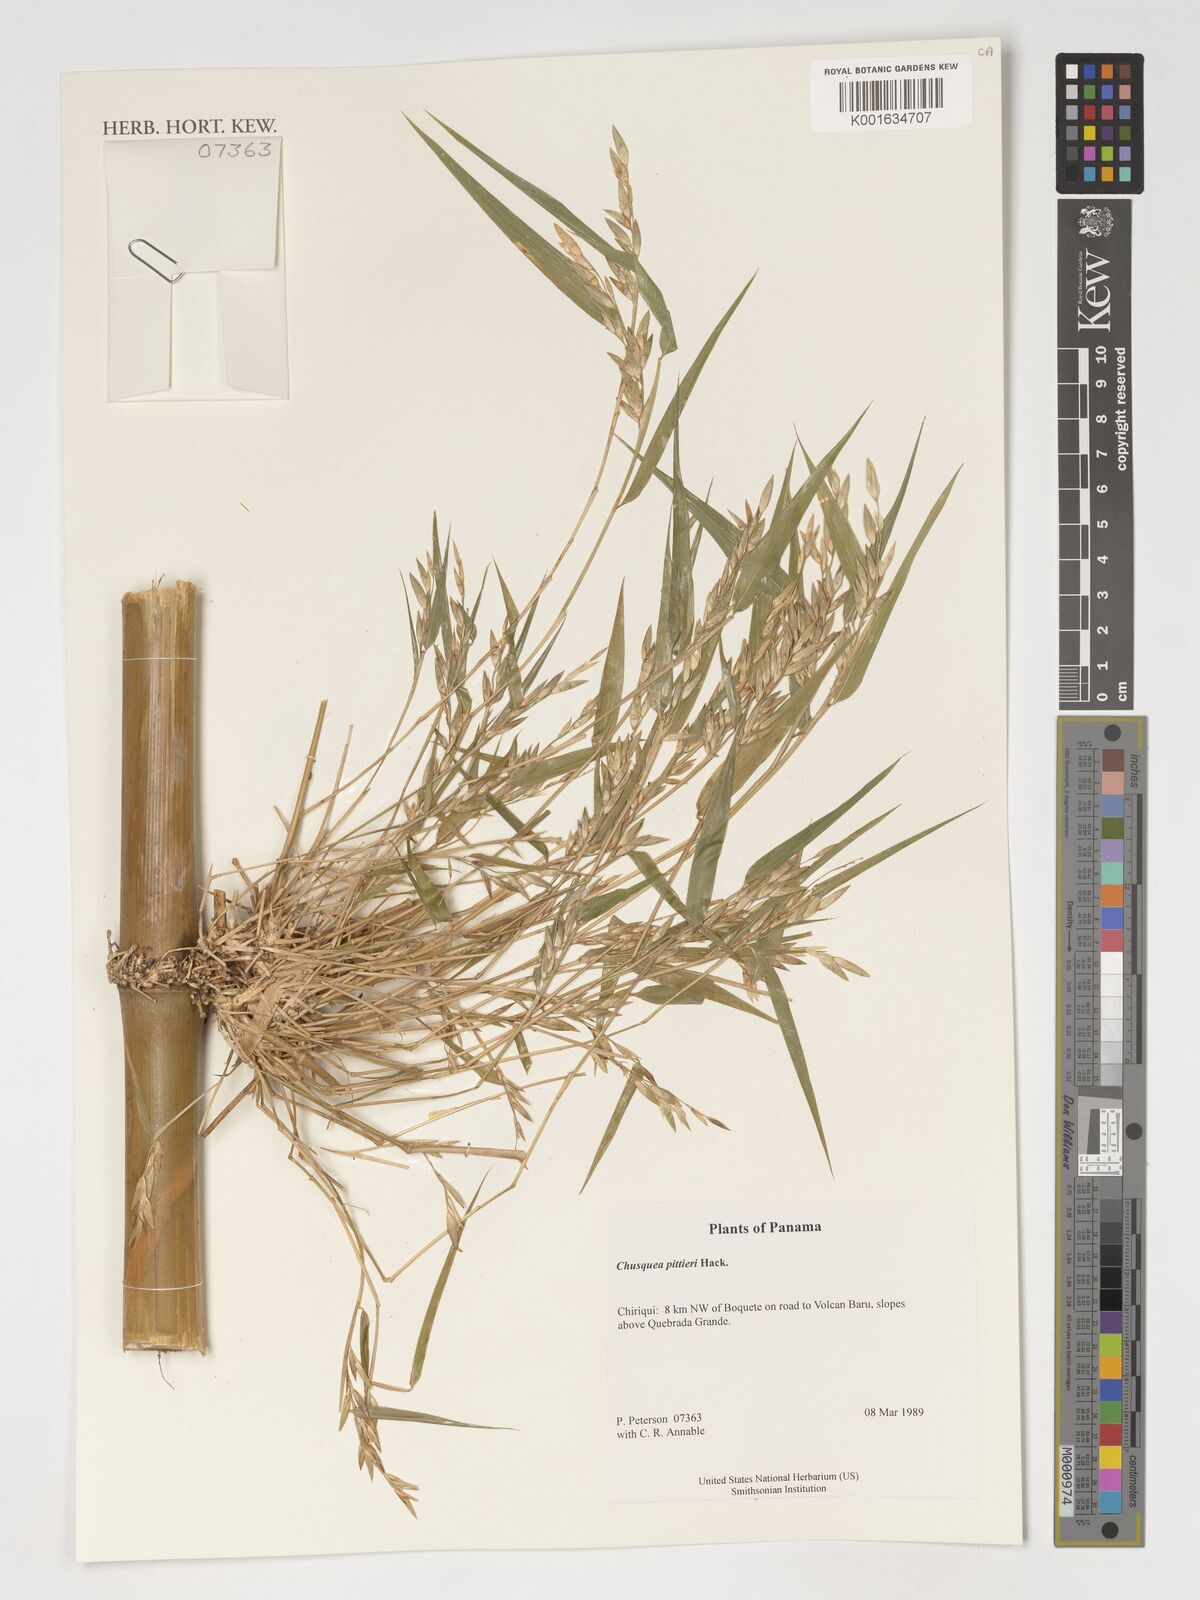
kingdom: Plantae
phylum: Tracheophyta
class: Liliopsida
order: Poales
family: Poaceae
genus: Chusquea
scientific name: Chusquea pittieri
